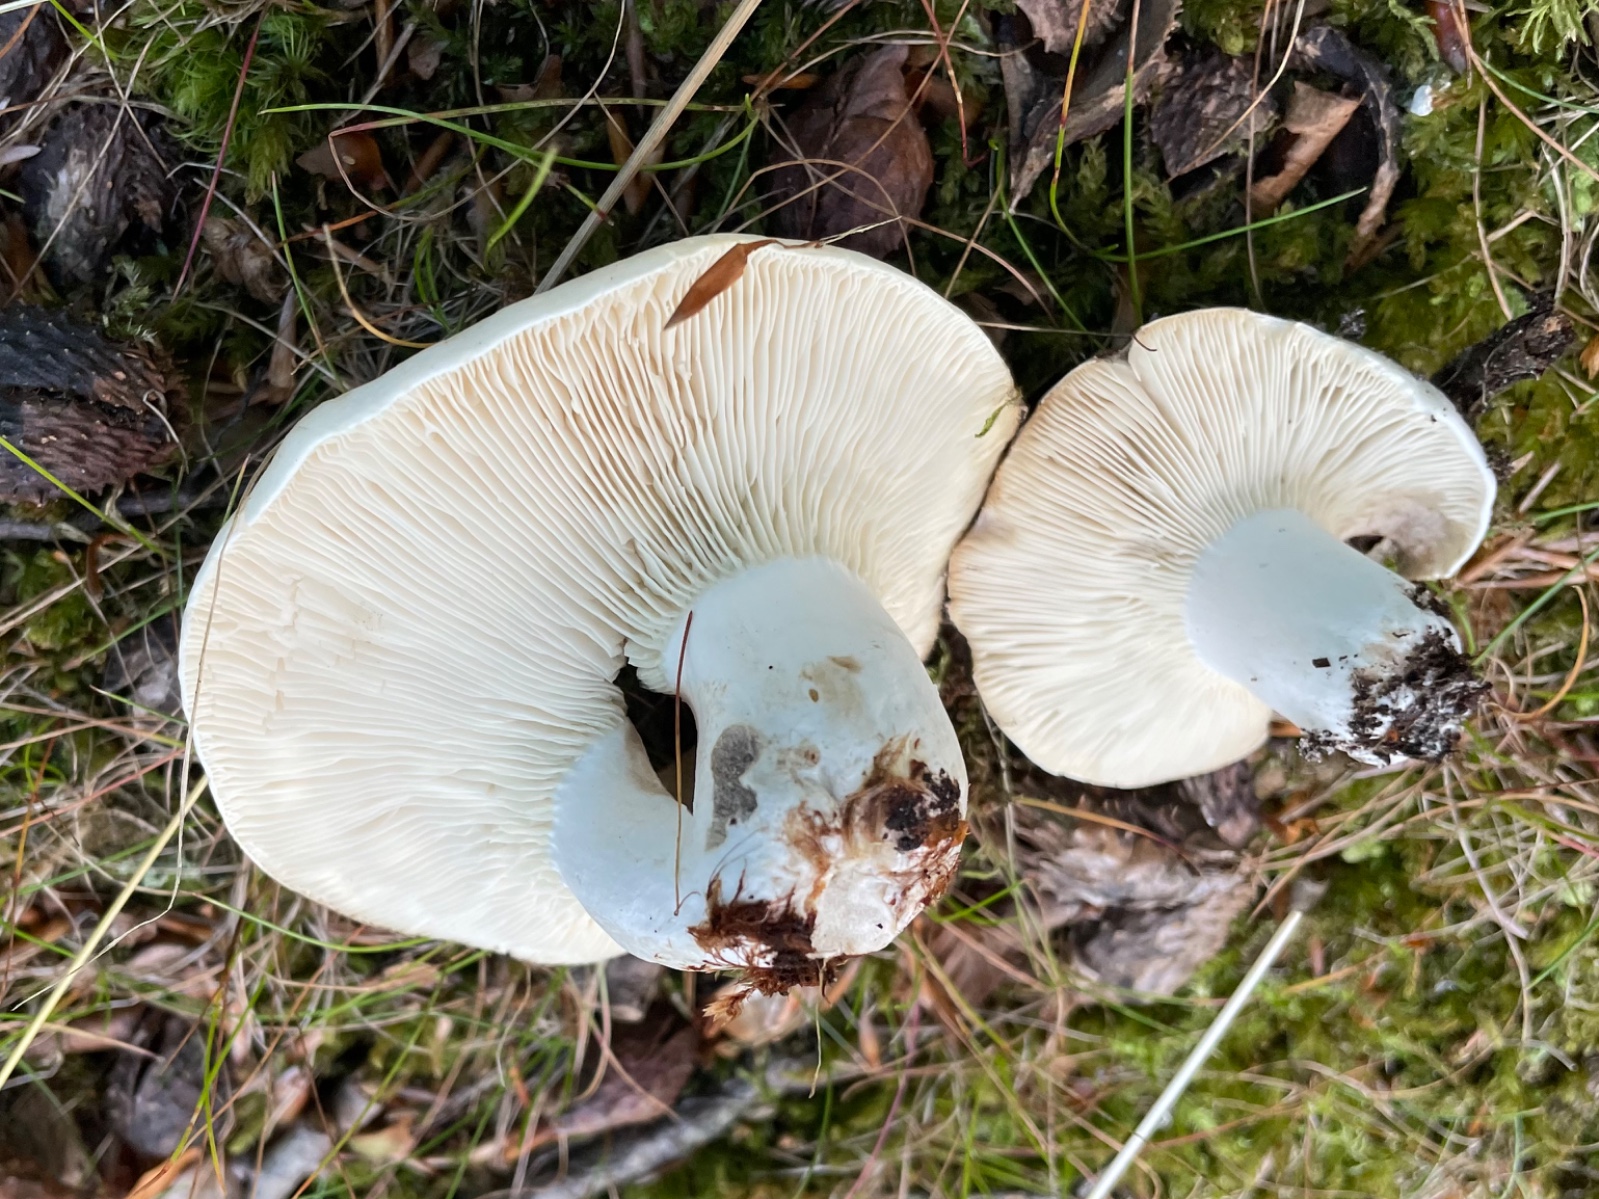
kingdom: Fungi
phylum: Basidiomycota
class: Agaricomycetes
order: Russulales
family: Russulaceae
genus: Russula
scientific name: Russula
